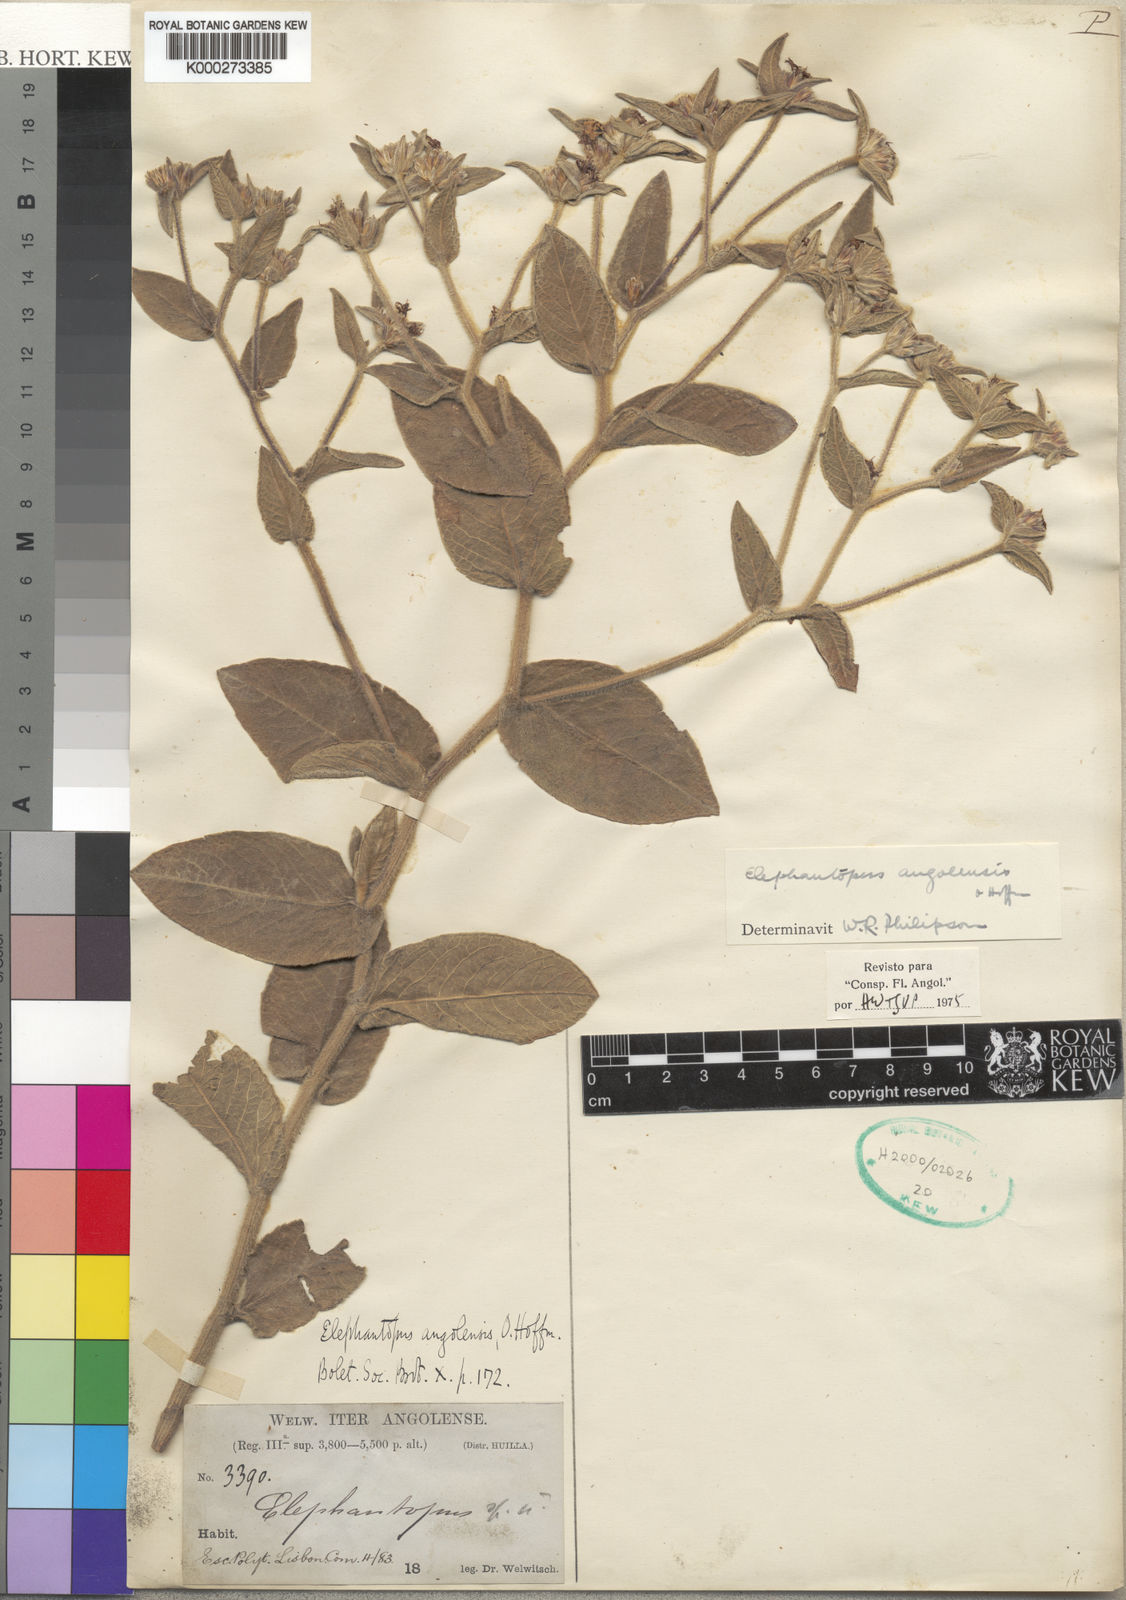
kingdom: Plantae
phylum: Tracheophyta
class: Magnoliopsida
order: Asterales
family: Asteraceae
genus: Elephantopus
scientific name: Elephantopus angolensis
